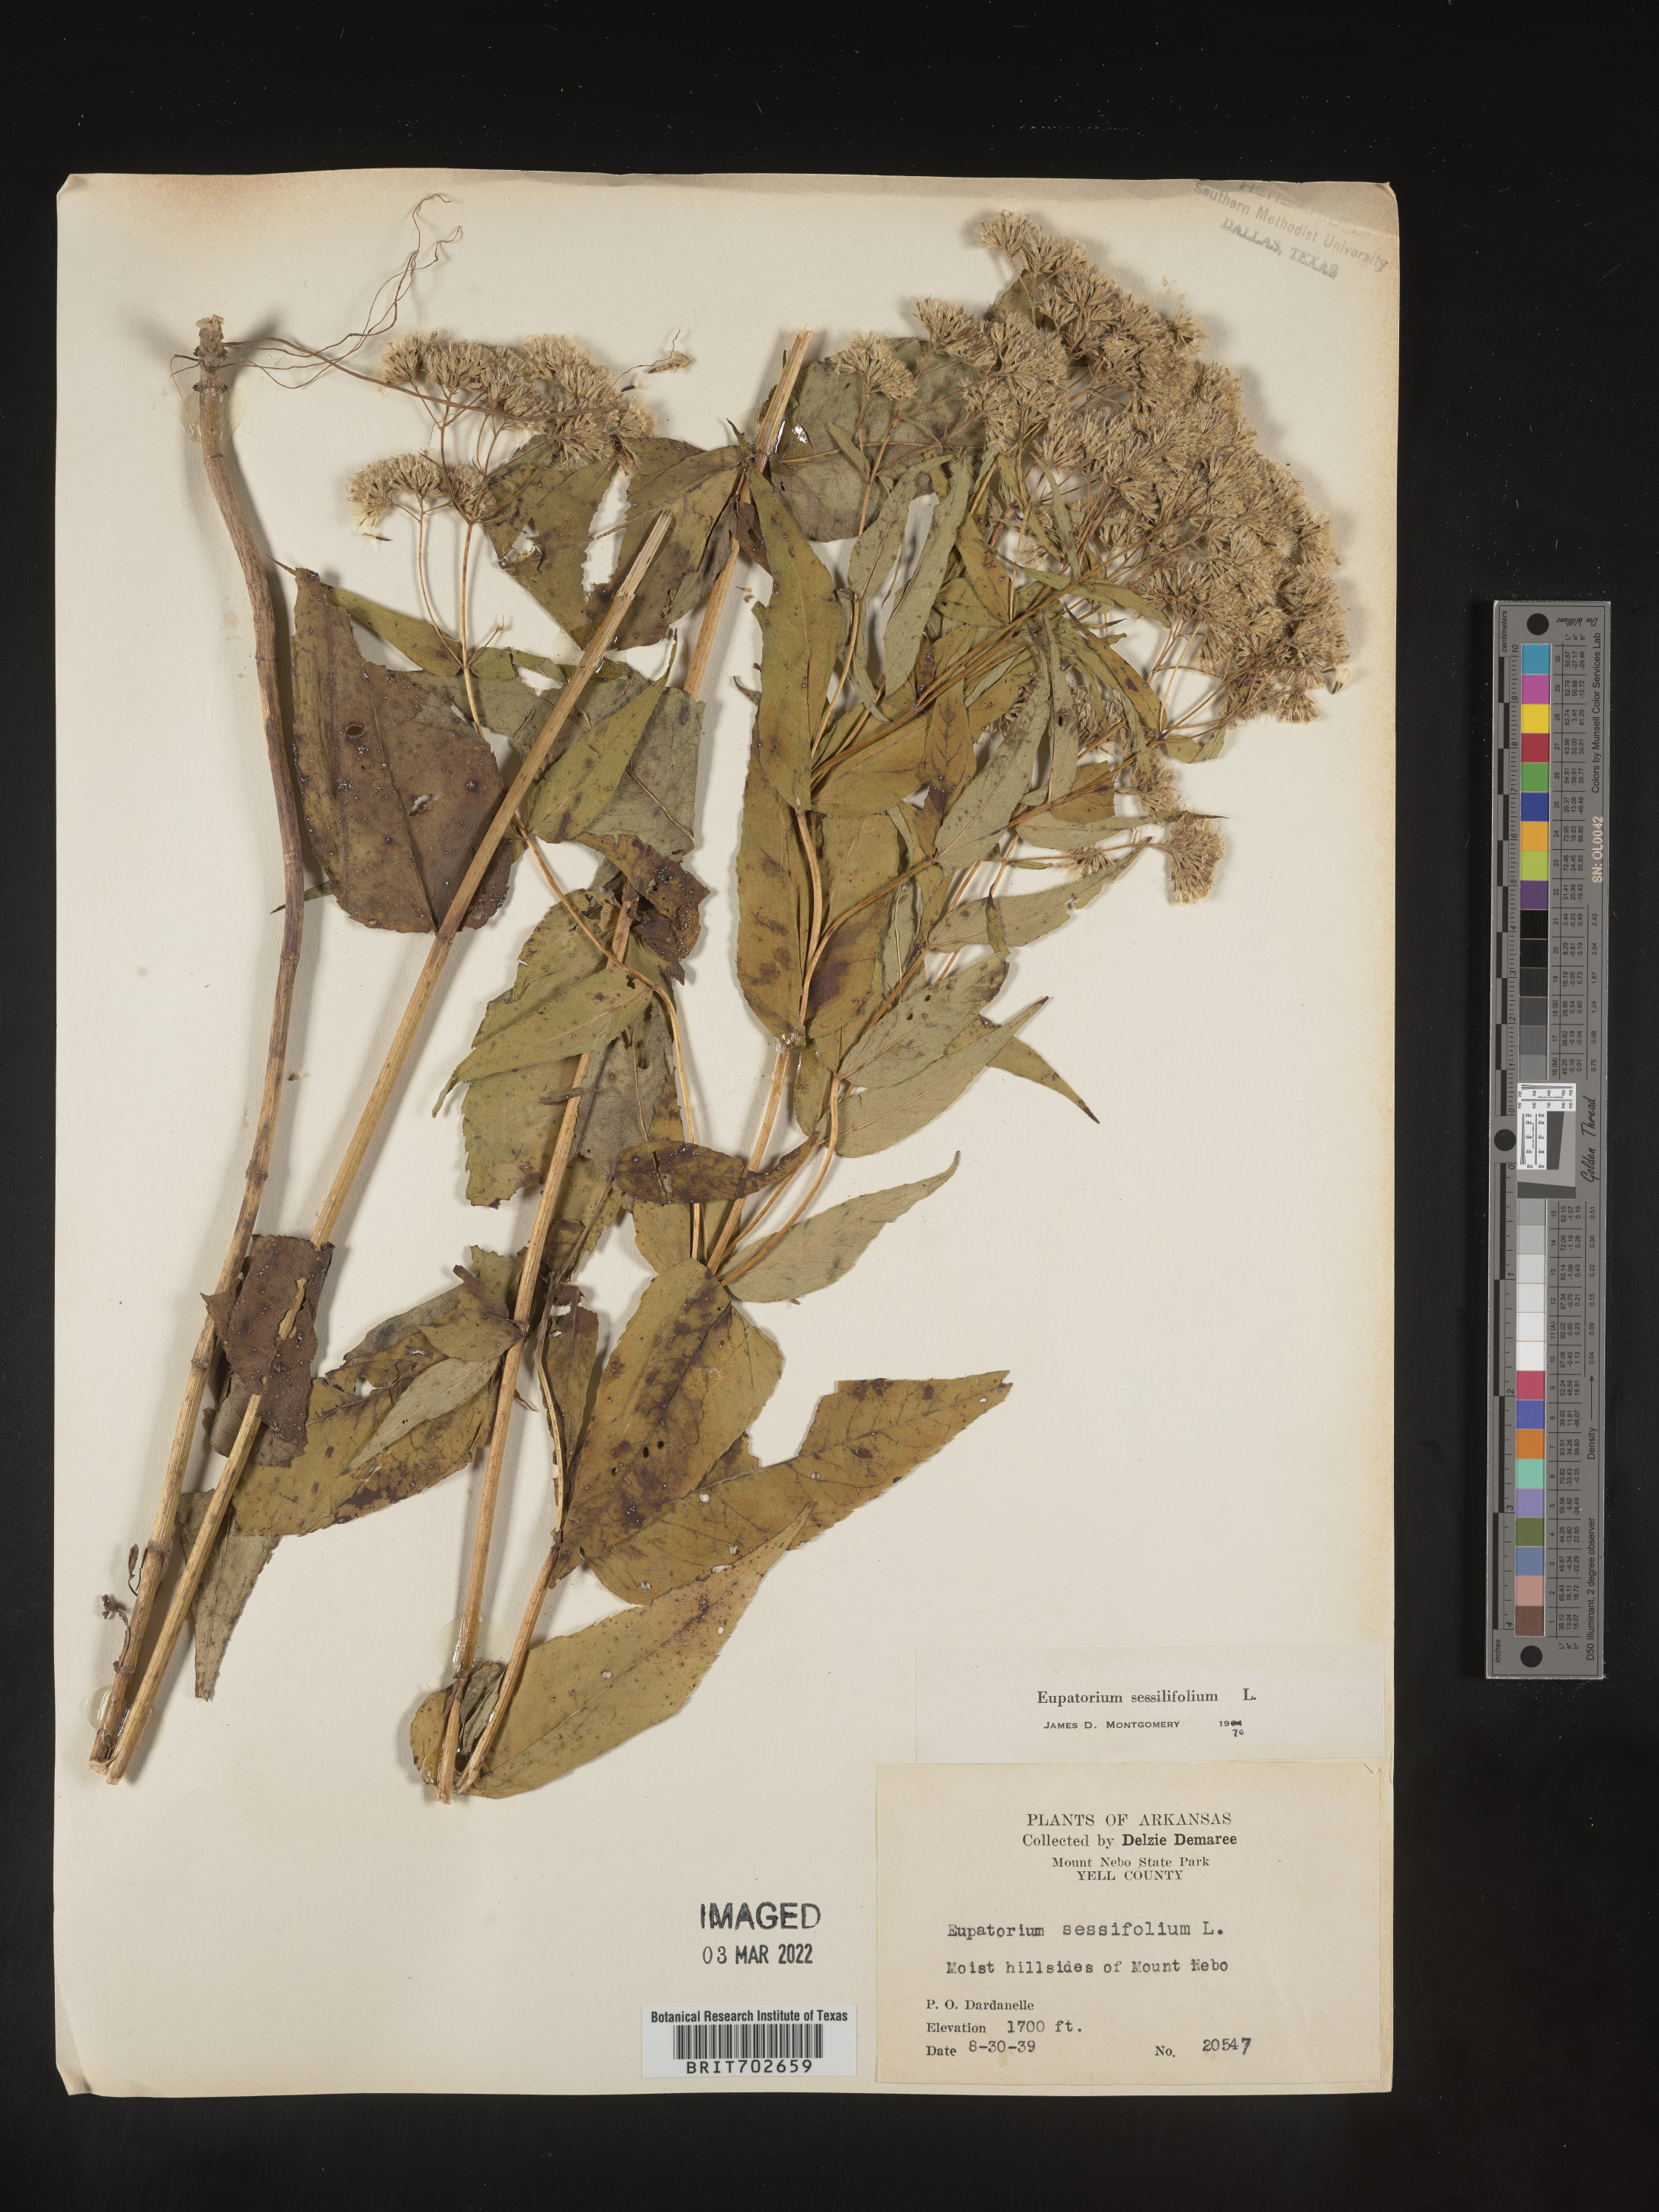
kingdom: Plantae
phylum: Tracheophyta
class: Magnoliopsida
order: Asterales
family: Asteraceae
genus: Eupatorium
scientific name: Eupatorium sessilifolium
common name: Upland boneset
